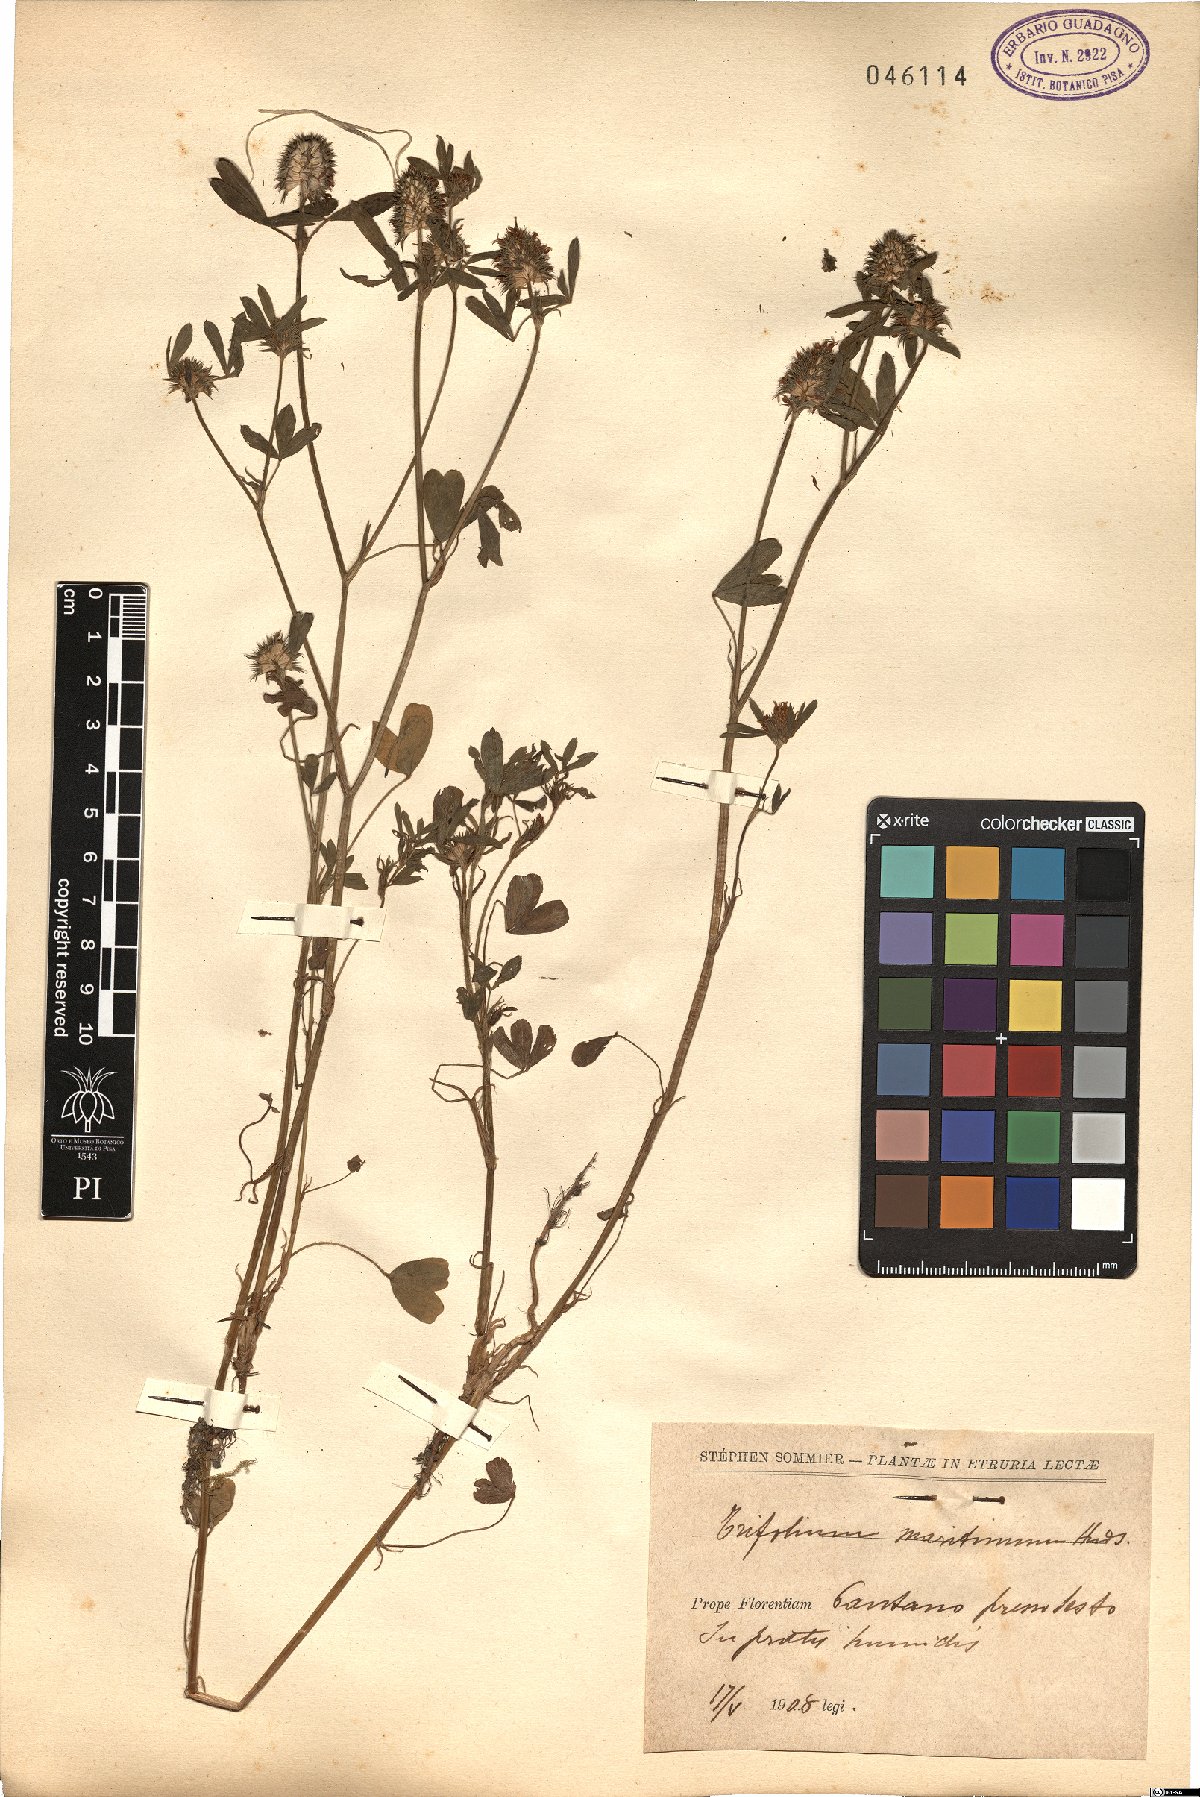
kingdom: Plantae
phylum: Tracheophyta
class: Magnoliopsida
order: Fabales
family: Fabaceae
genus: Trifolium
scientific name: Trifolium squamosum
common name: Sea clover
